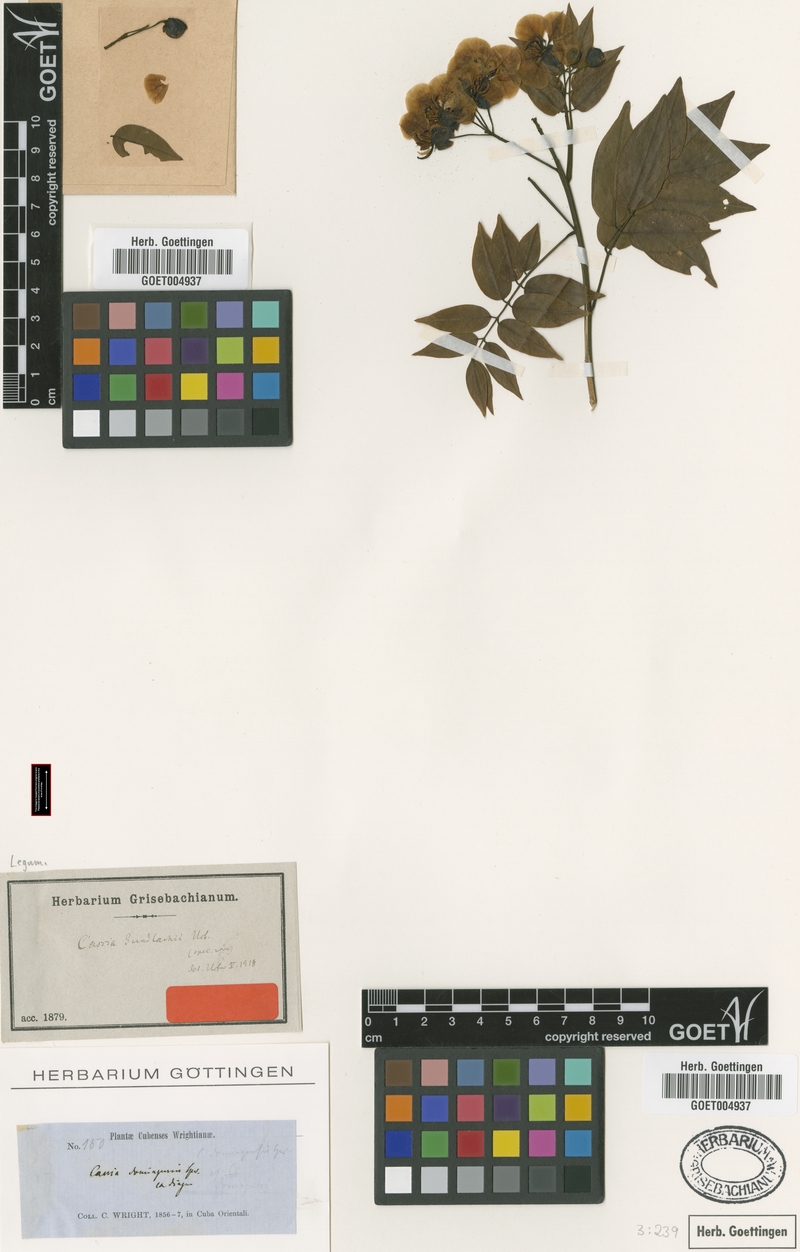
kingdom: Plantae
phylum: Tracheophyta
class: Magnoliopsida
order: Fabales
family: Fabaceae
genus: Senna
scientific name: Senna gundlachii
